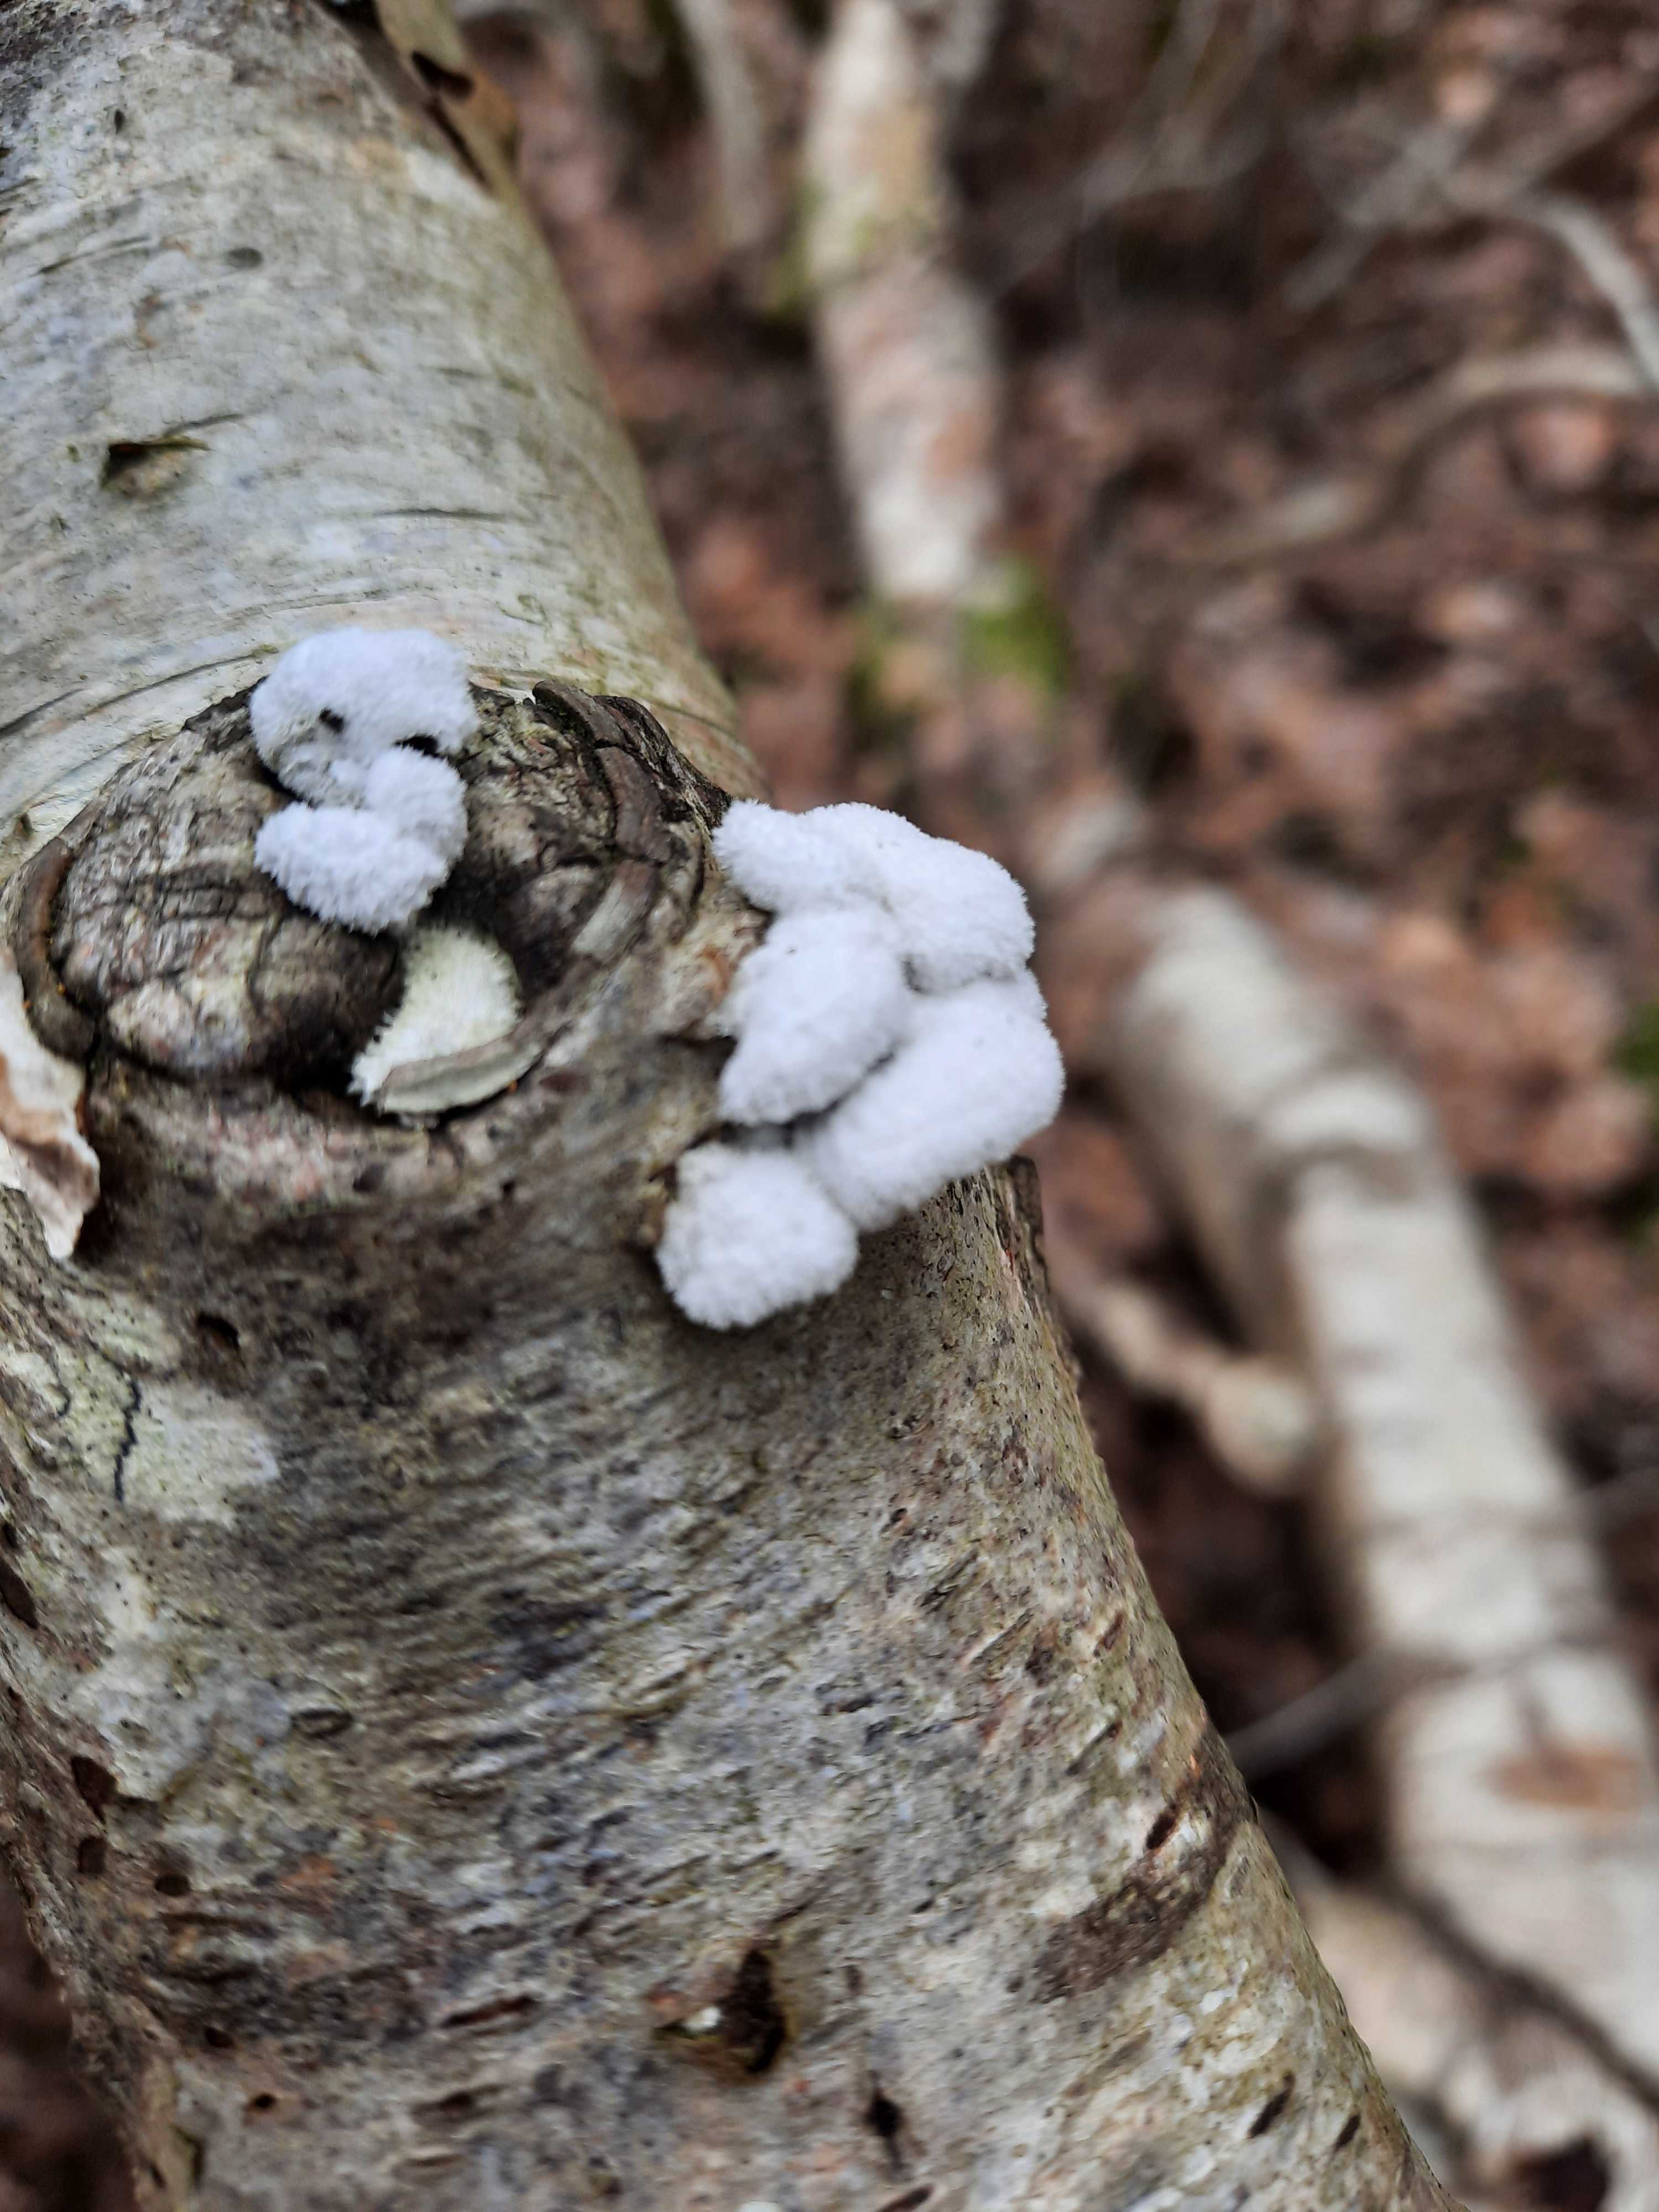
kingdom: Fungi
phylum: Basidiomycota
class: Agaricomycetes
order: Agaricales
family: Schizophyllaceae
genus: Schizophyllum
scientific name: Schizophyllum commune
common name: kløvblad
